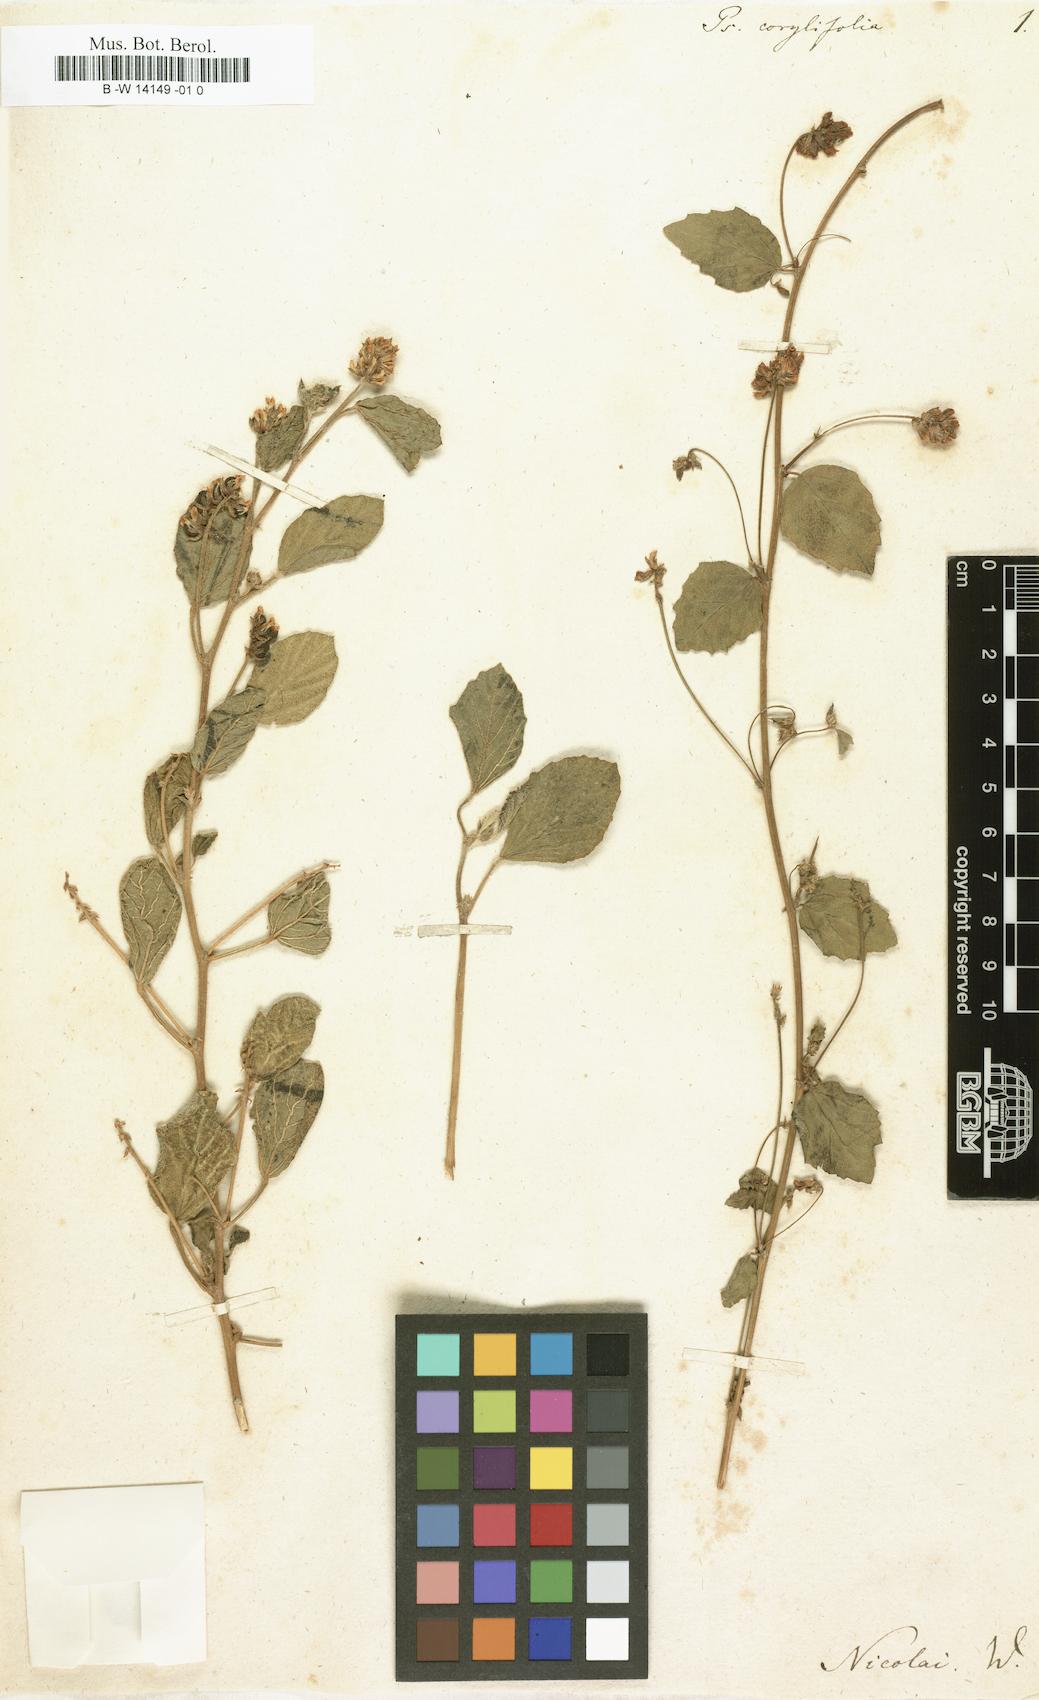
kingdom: Plantae
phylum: Tracheophyta
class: Magnoliopsida
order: Fabales
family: Fabaceae
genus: Cullen
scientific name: Cullen corylifolium
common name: Malaysian scurfpea
